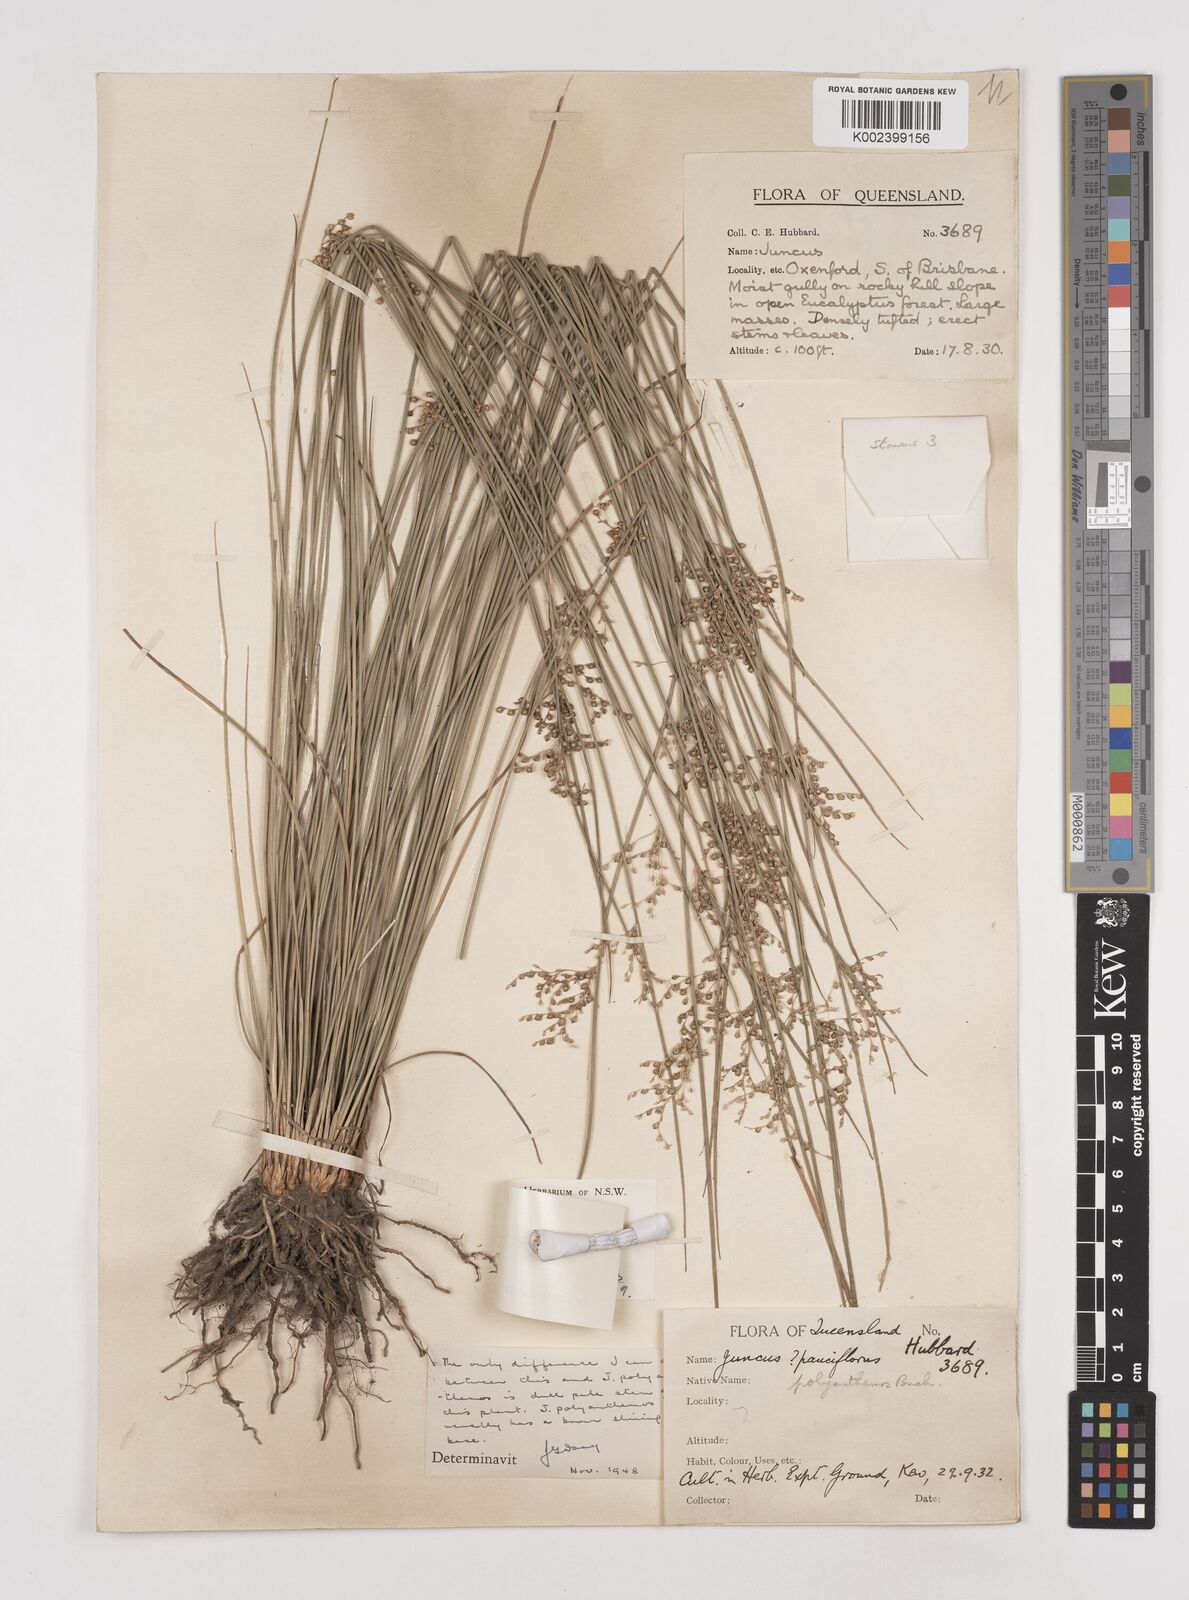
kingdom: Plantae
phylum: Tracheophyta
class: Liliopsida
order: Poales
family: Juncaceae
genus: Juncus
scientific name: Juncus usitatus
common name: Rush
